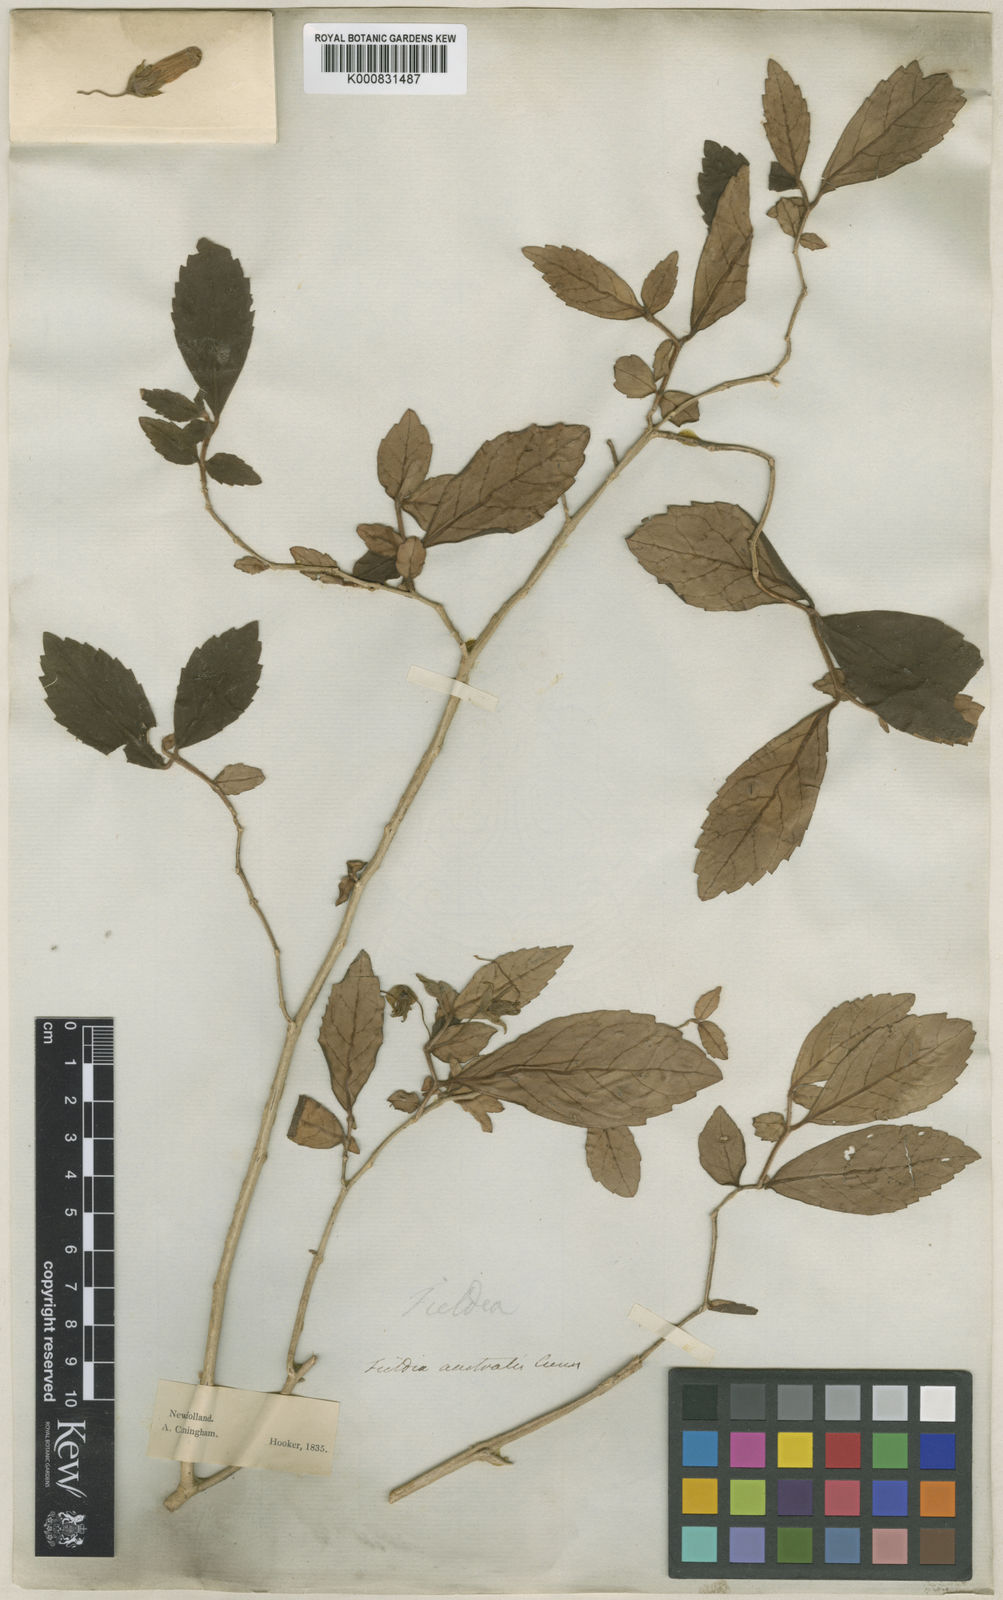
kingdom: Plantae
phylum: Tracheophyta
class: Magnoliopsida
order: Lamiales
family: Gesneriaceae
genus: Fieldia
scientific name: Fieldia australis
